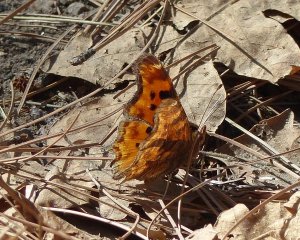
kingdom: Animalia
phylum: Arthropoda
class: Insecta
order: Lepidoptera
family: Nymphalidae
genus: Polygonia
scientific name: Polygonia satyrus
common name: Satyr Comma
